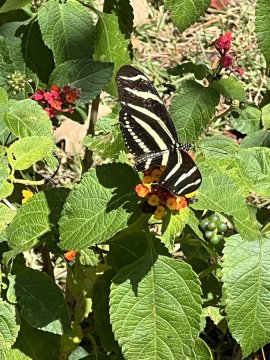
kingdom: Animalia
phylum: Arthropoda
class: Insecta
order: Lepidoptera
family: Nymphalidae
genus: Heliconius
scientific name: Heliconius charithonia
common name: Zebra Longwing
